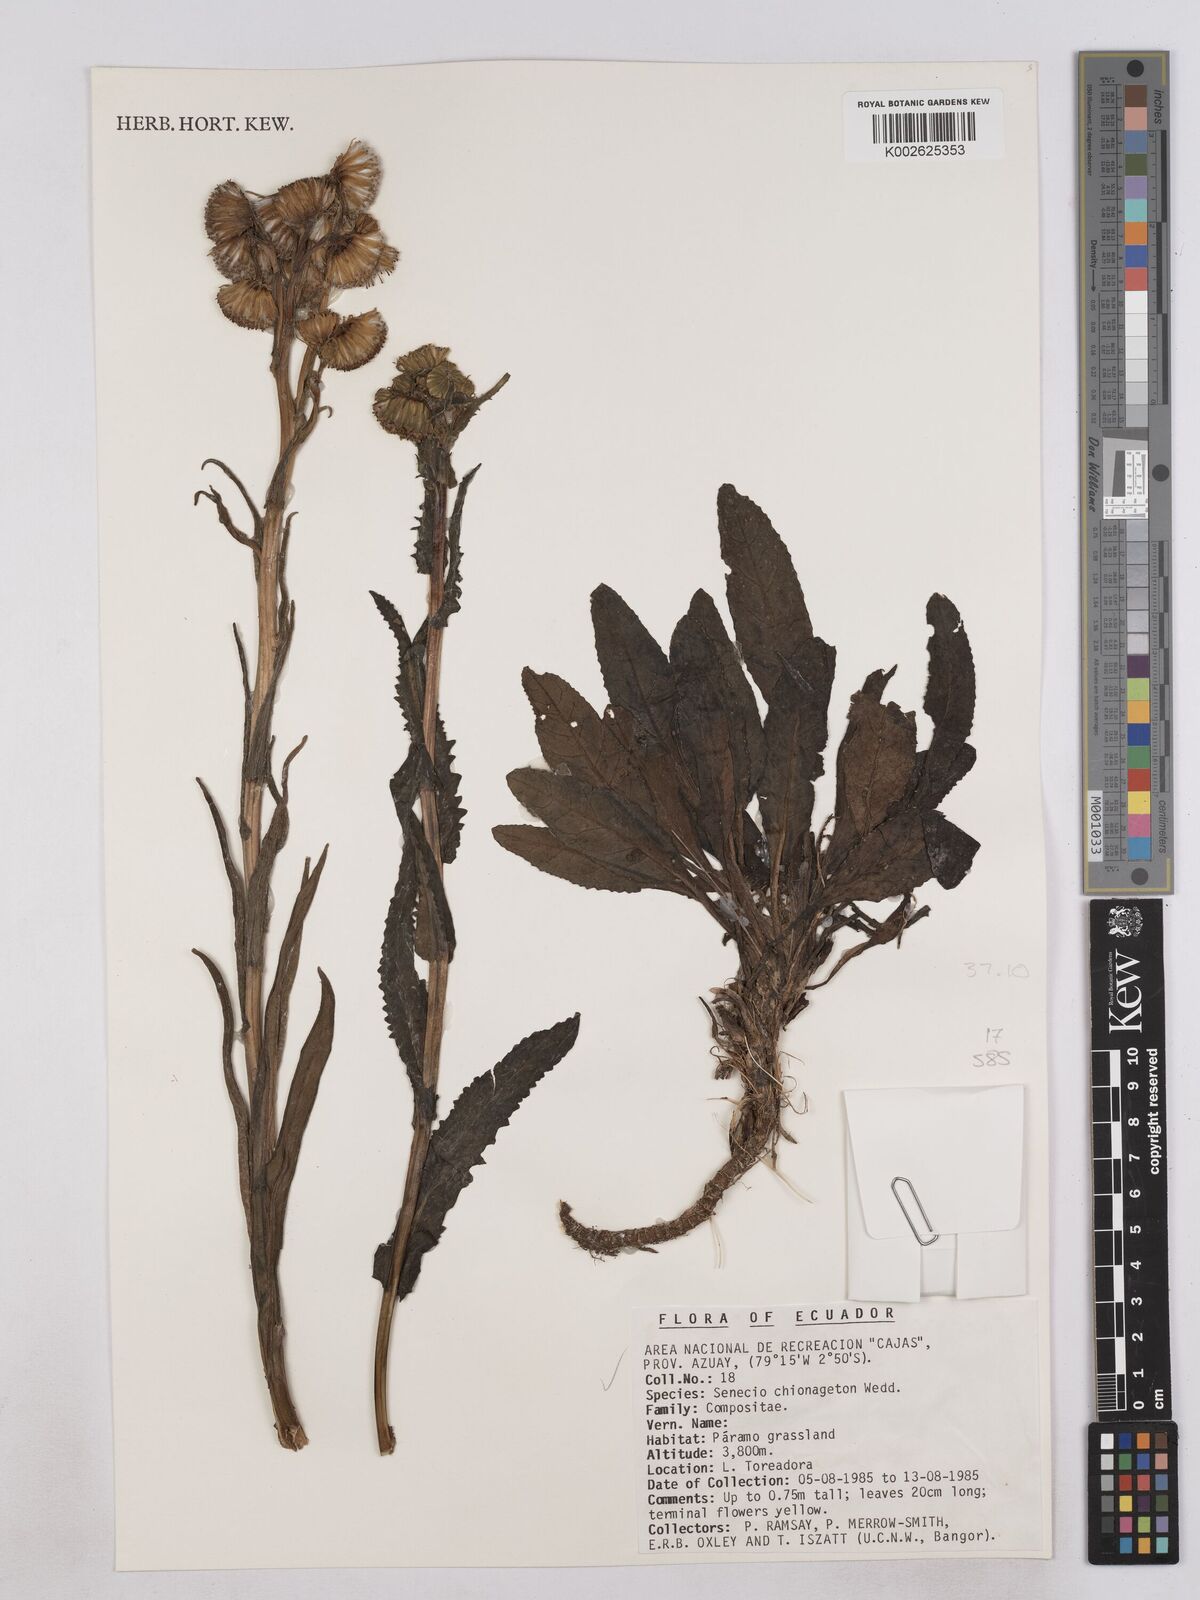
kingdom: Plantae
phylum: Tracheophyta
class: Magnoliopsida
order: Asterales
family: Asteraceae
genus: Senecio
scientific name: Senecio chionogeton
